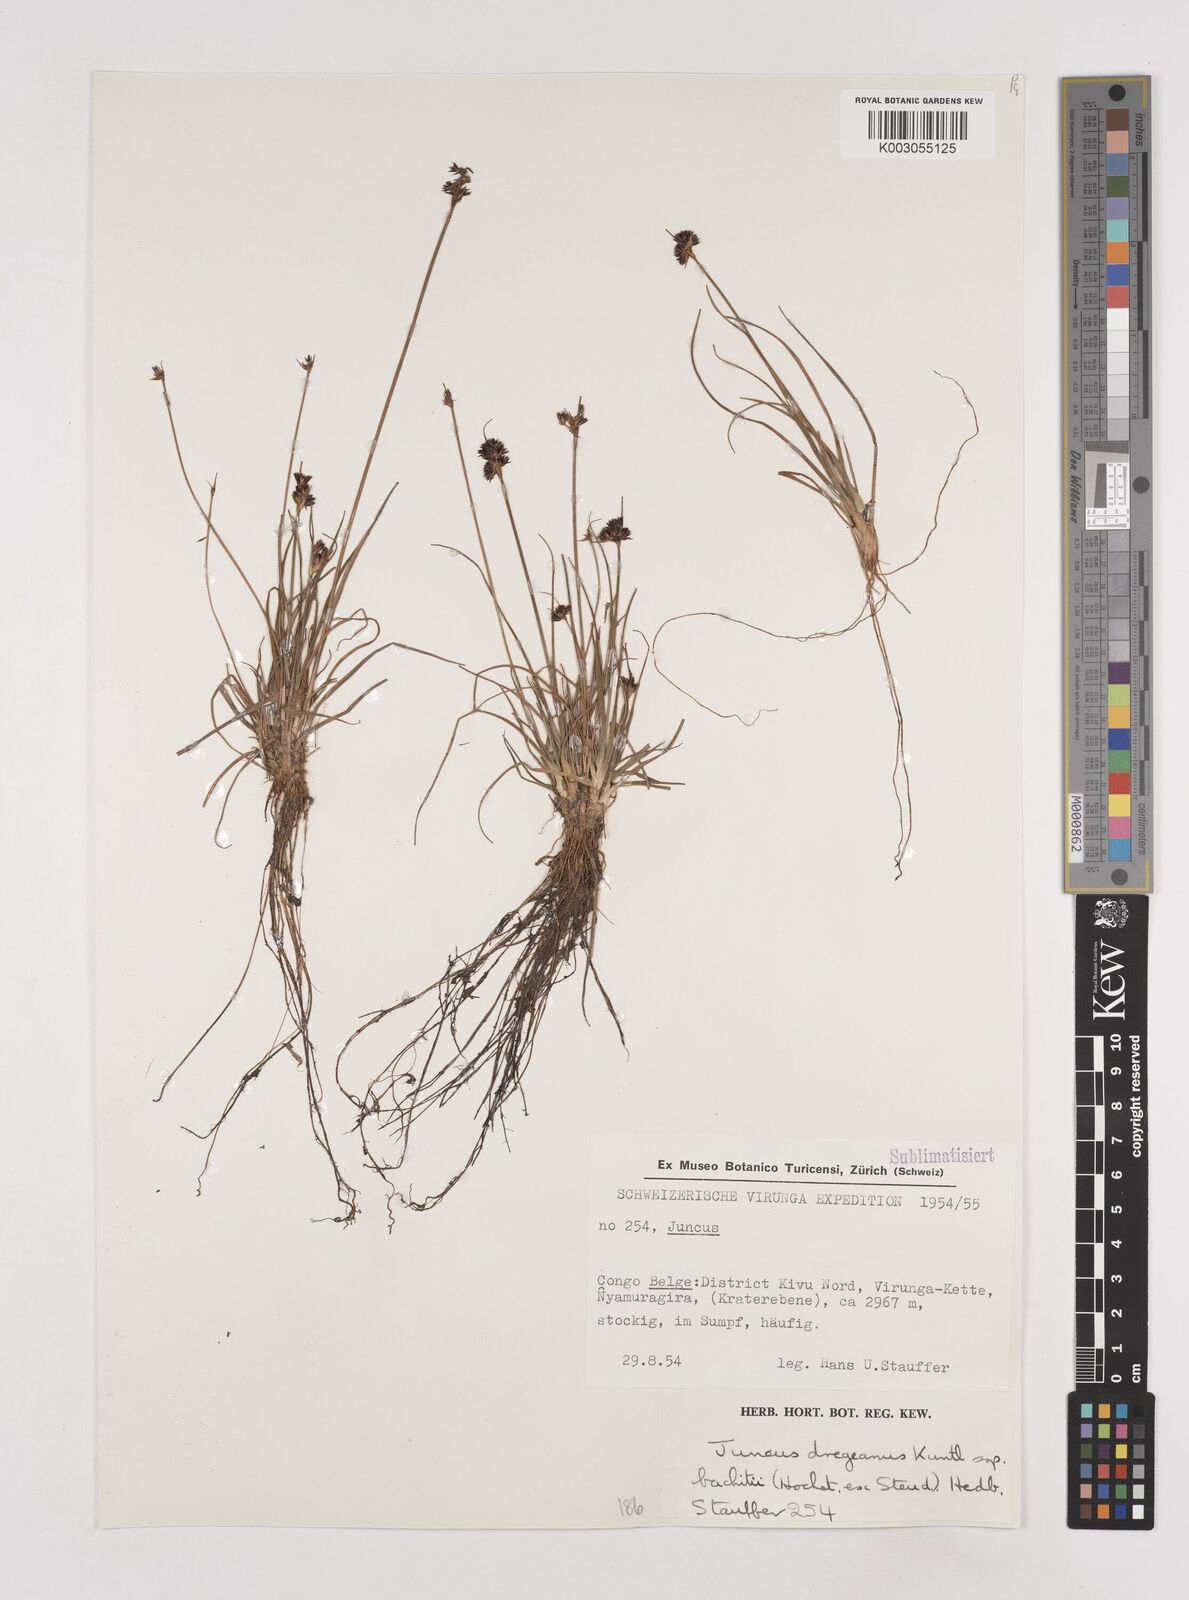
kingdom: Plantae
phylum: Tracheophyta
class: Liliopsida
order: Poales
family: Juncaceae
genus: Juncus
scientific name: Juncus dregeanus
